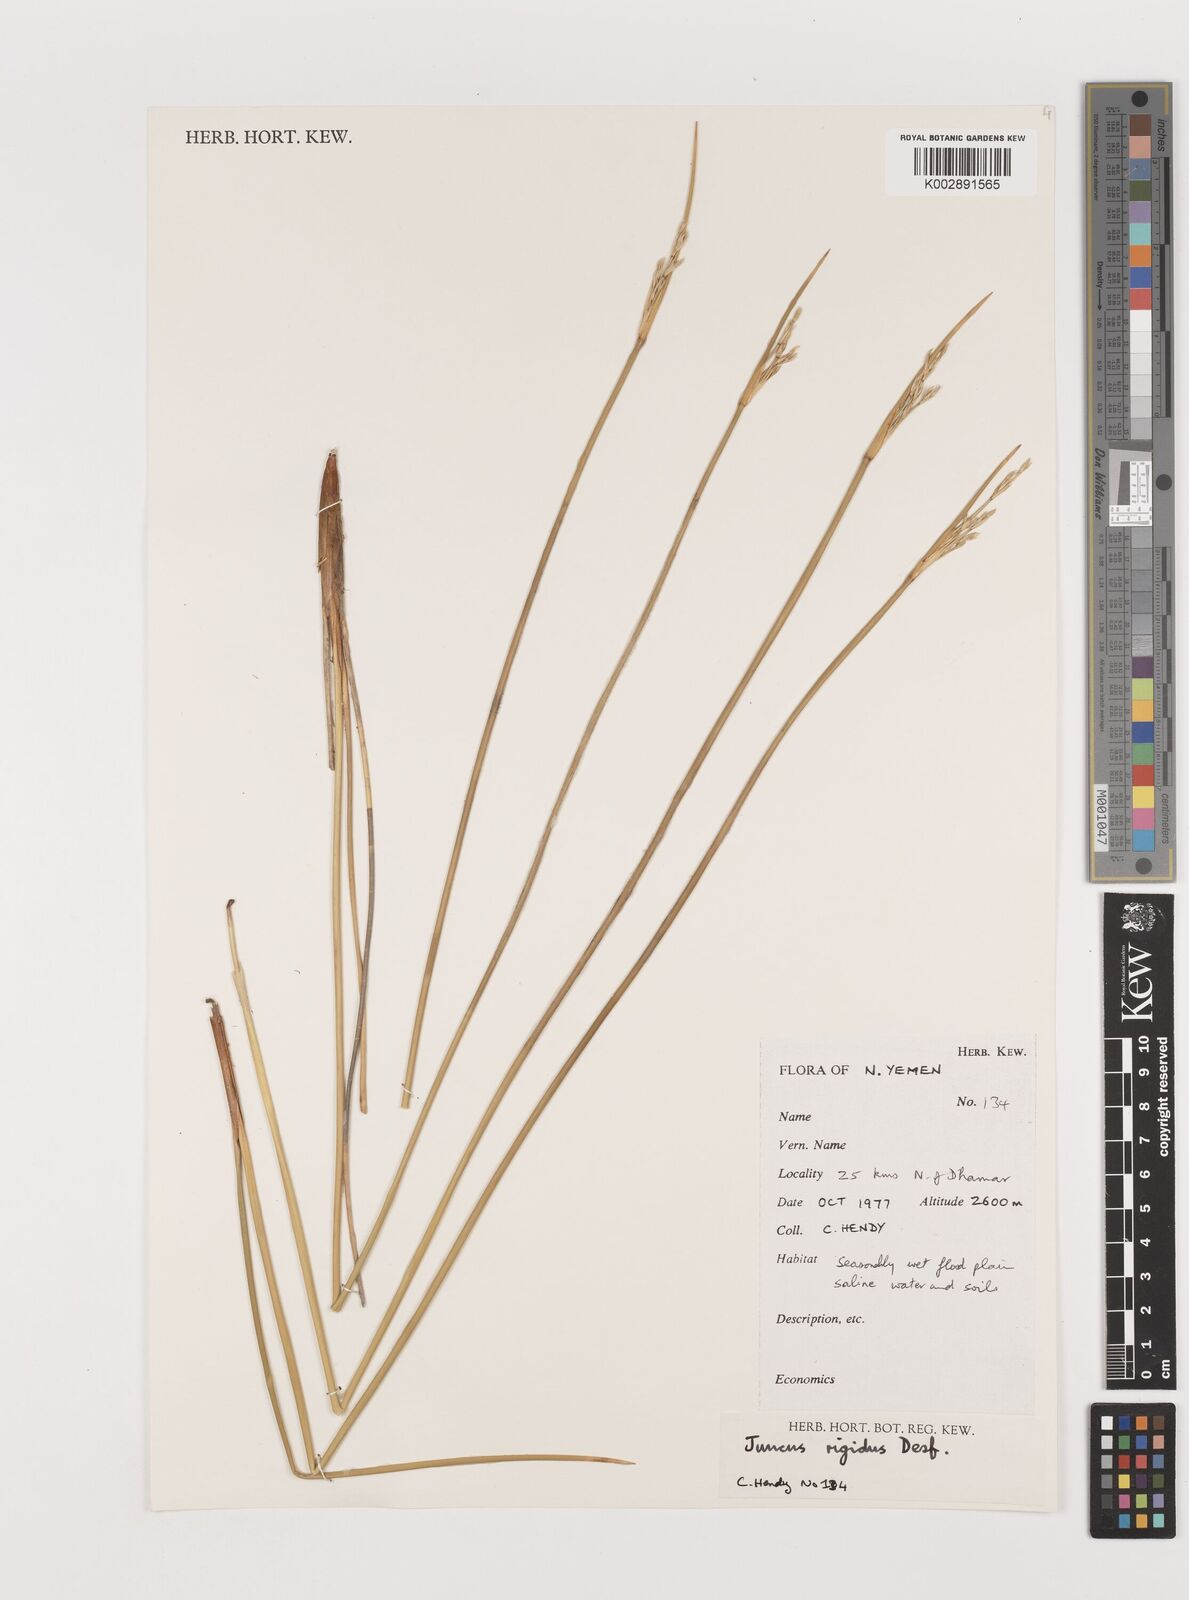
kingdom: Plantae
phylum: Tracheophyta
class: Liliopsida
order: Poales
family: Juncaceae
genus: Juncus
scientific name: Juncus rigidus
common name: Hard sea rush
